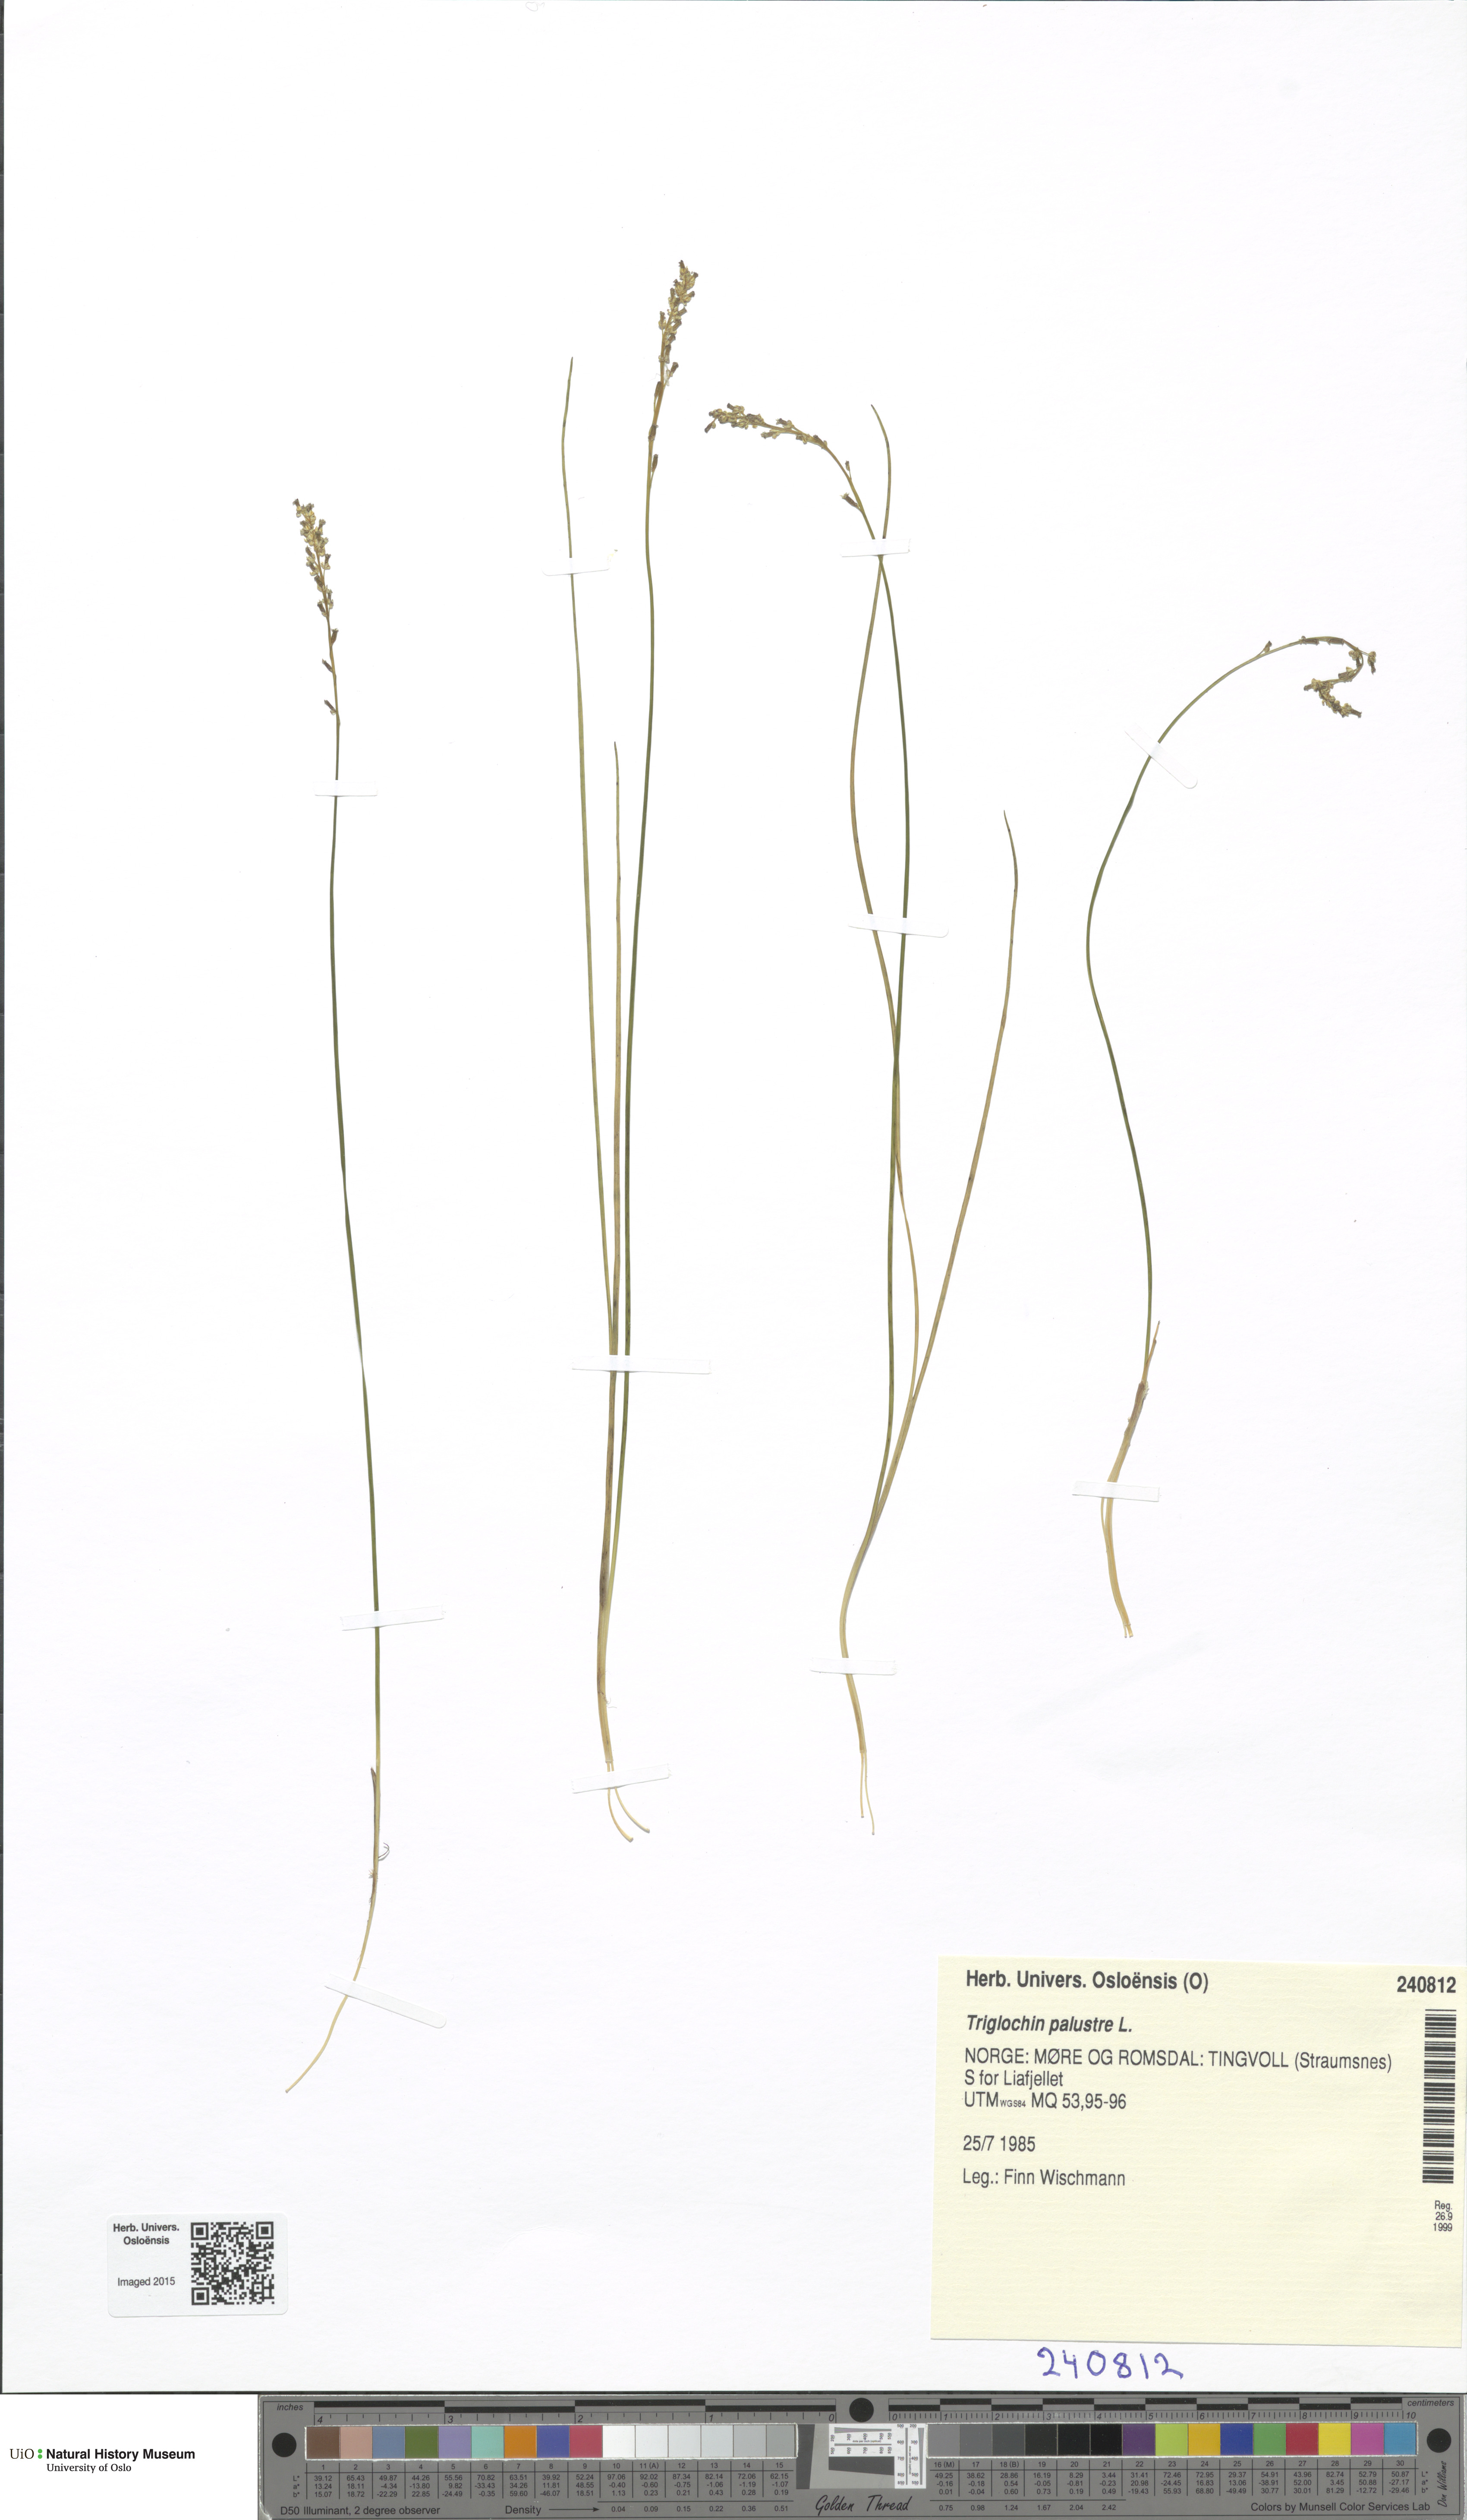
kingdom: Plantae
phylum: Tracheophyta
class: Liliopsida
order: Alismatales
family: Juncaginaceae
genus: Triglochin
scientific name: Triglochin palustris
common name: Marsh arrowgrass
